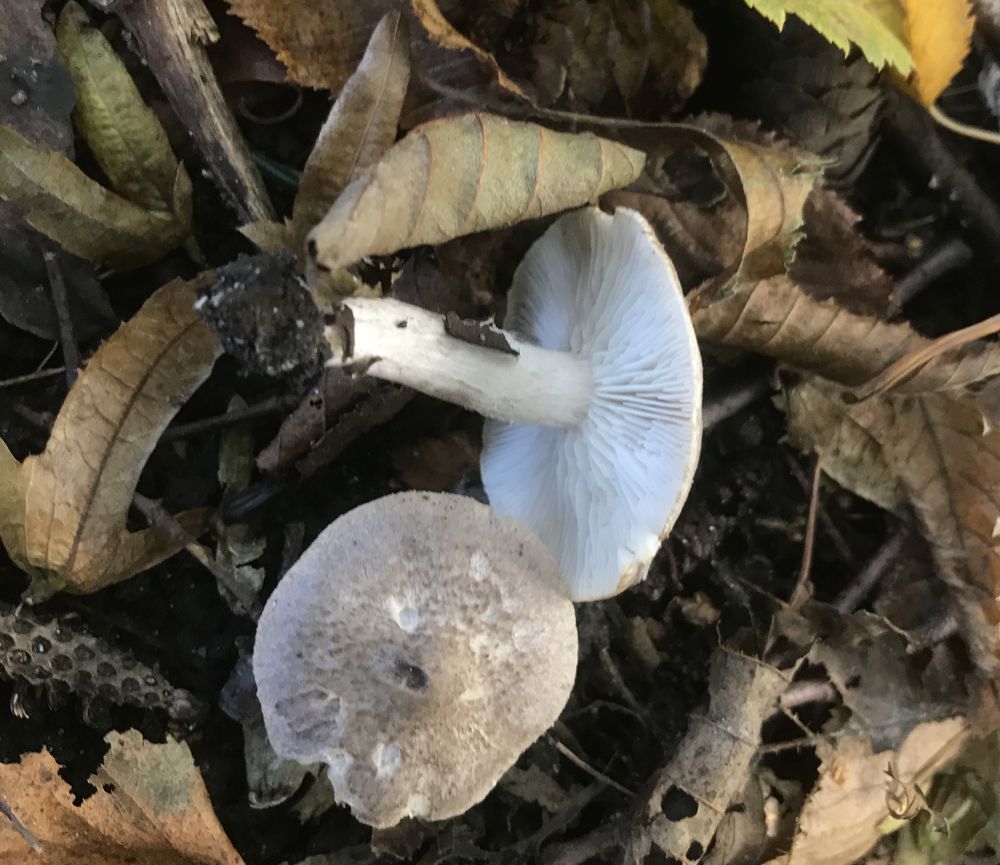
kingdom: Fungi
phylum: Basidiomycota
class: Agaricomycetes
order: Agaricales
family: Tricholomataceae
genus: Tricholoma
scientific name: Tricholoma argyraceum
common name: slør-ridderhat
